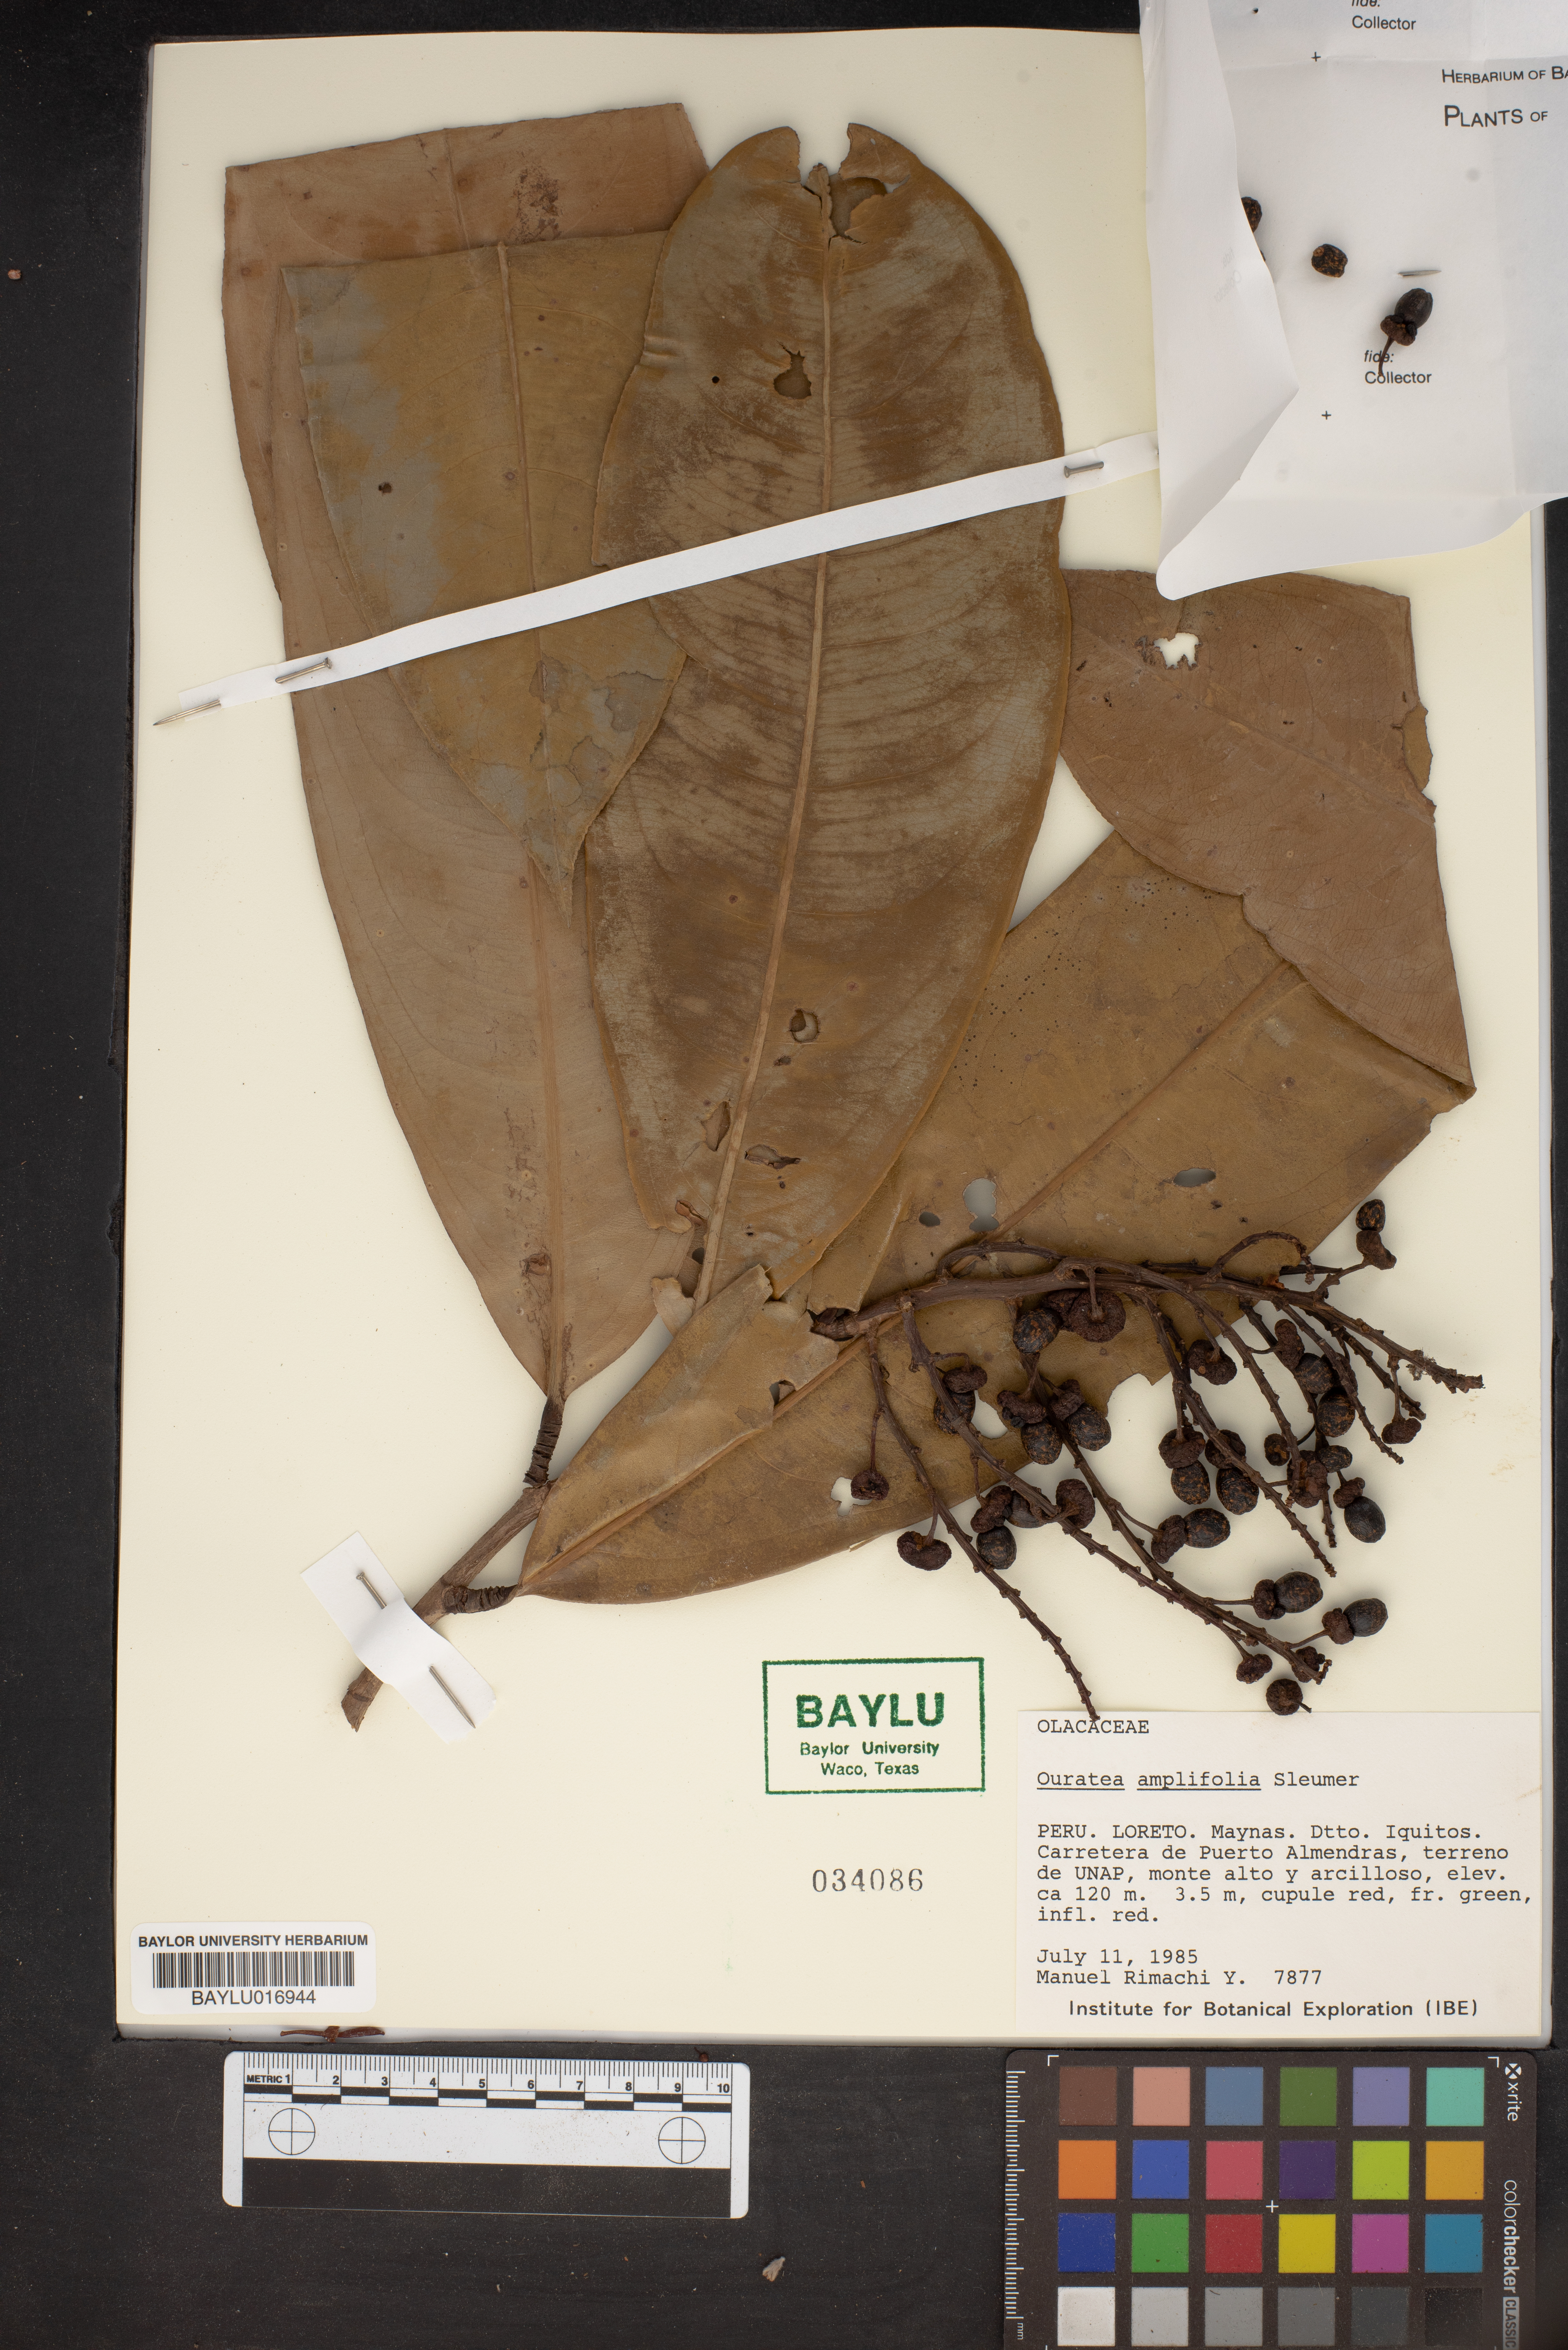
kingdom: Plantae
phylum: Tracheophyta
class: Magnoliopsida
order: Malpighiales
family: Ochnaceae
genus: Ouratea
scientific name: Ouratea amplifolia
